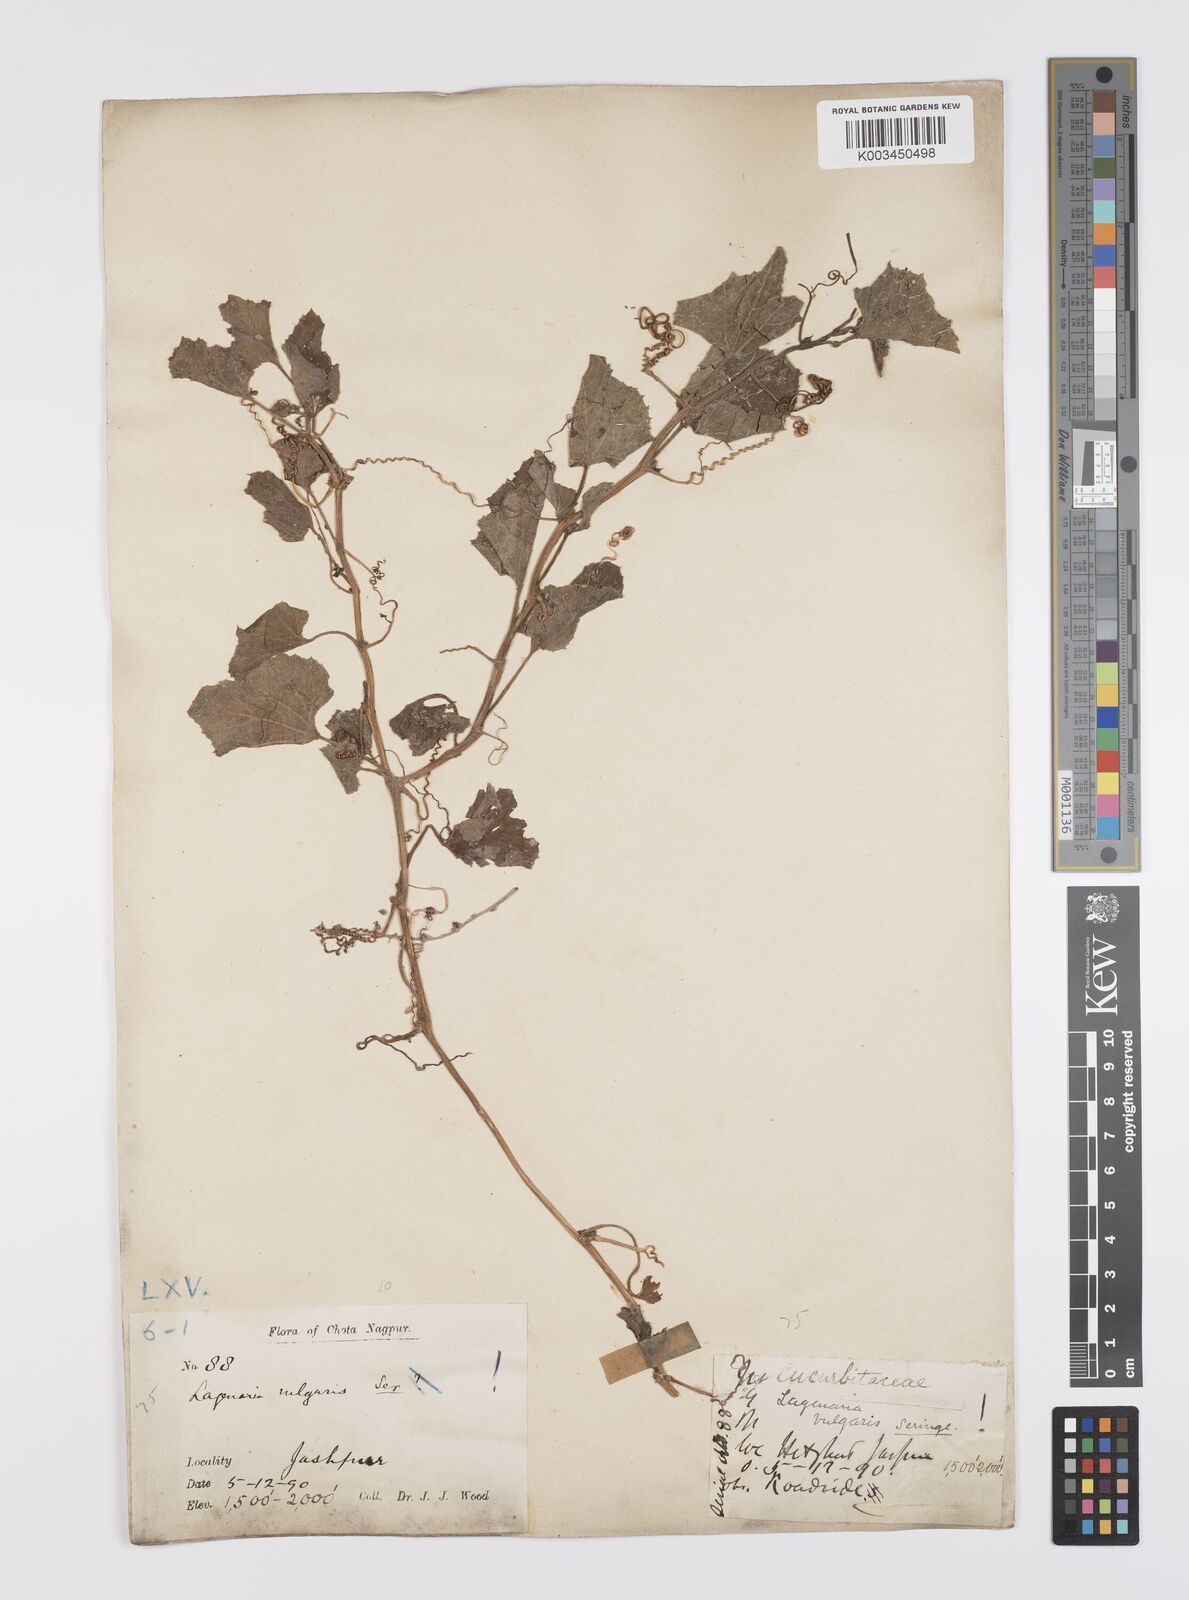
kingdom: Plantae
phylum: Tracheophyta
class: Magnoliopsida
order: Cucurbitales
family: Cucurbitaceae
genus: Lagenaria
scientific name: Lagenaria siceraria
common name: Bottle gourd
